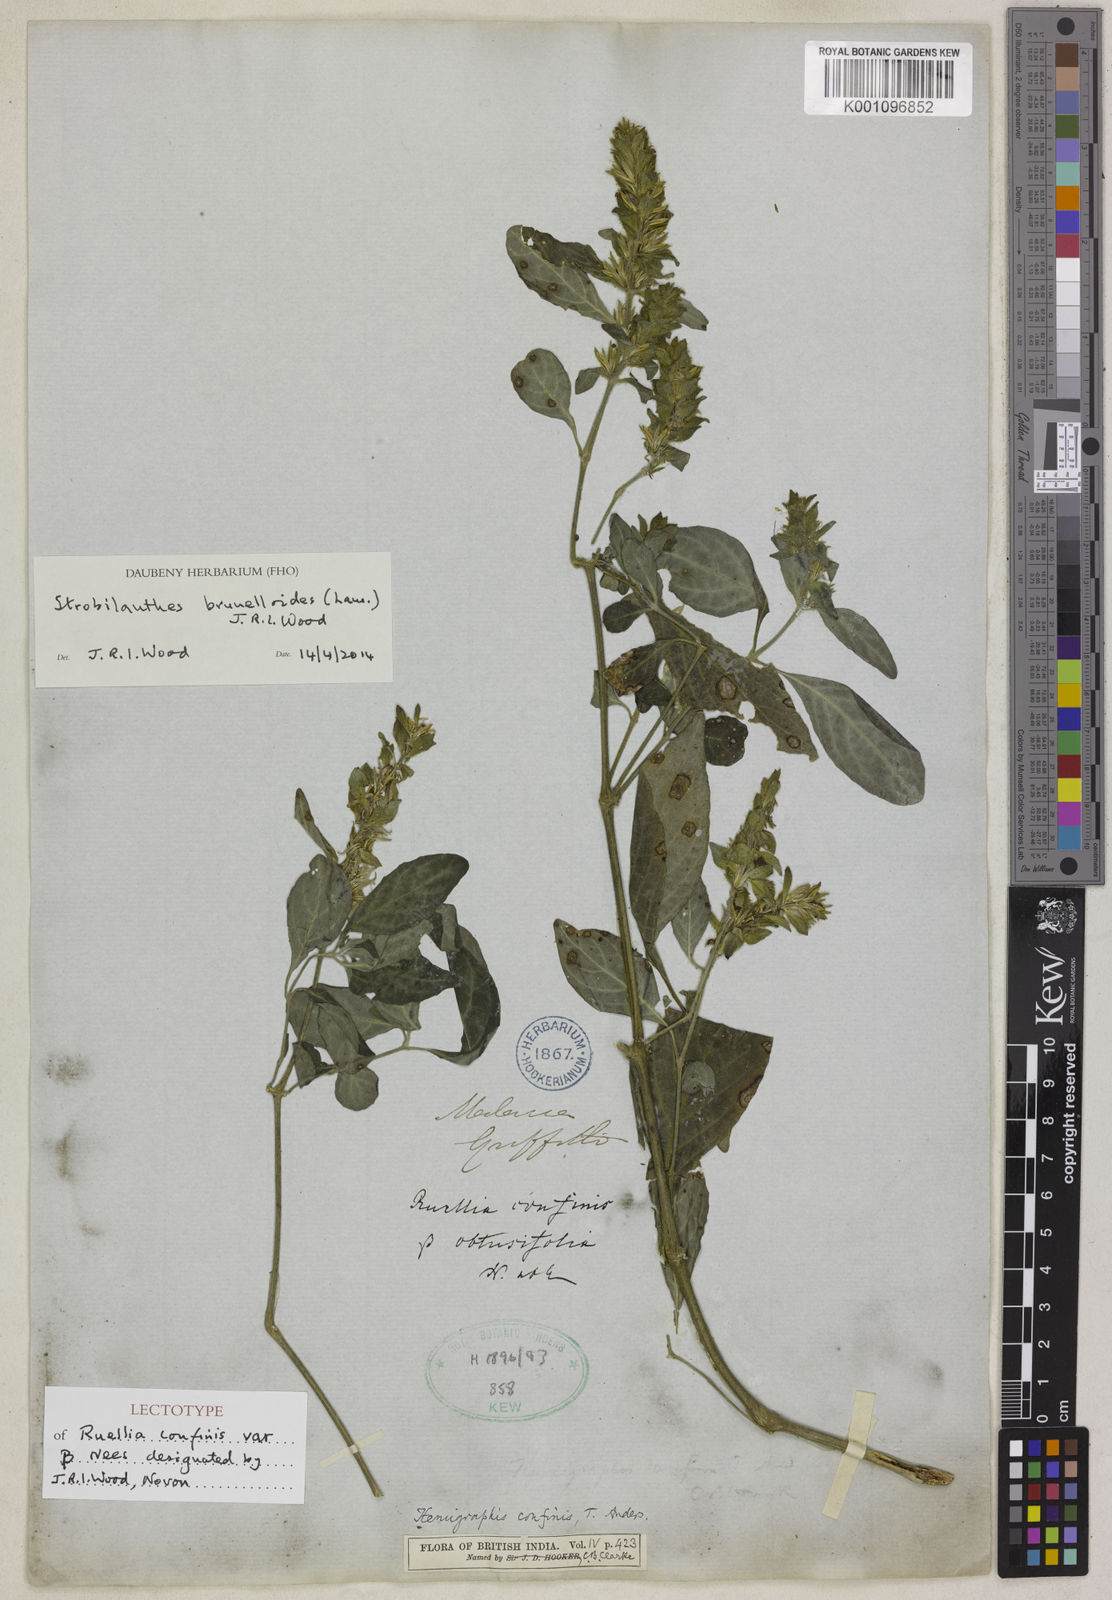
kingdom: Plantae
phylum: Tracheophyta
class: Magnoliopsida
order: Lamiales
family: Acanthaceae
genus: Strobilanthes
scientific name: Strobilanthes brunelloides
